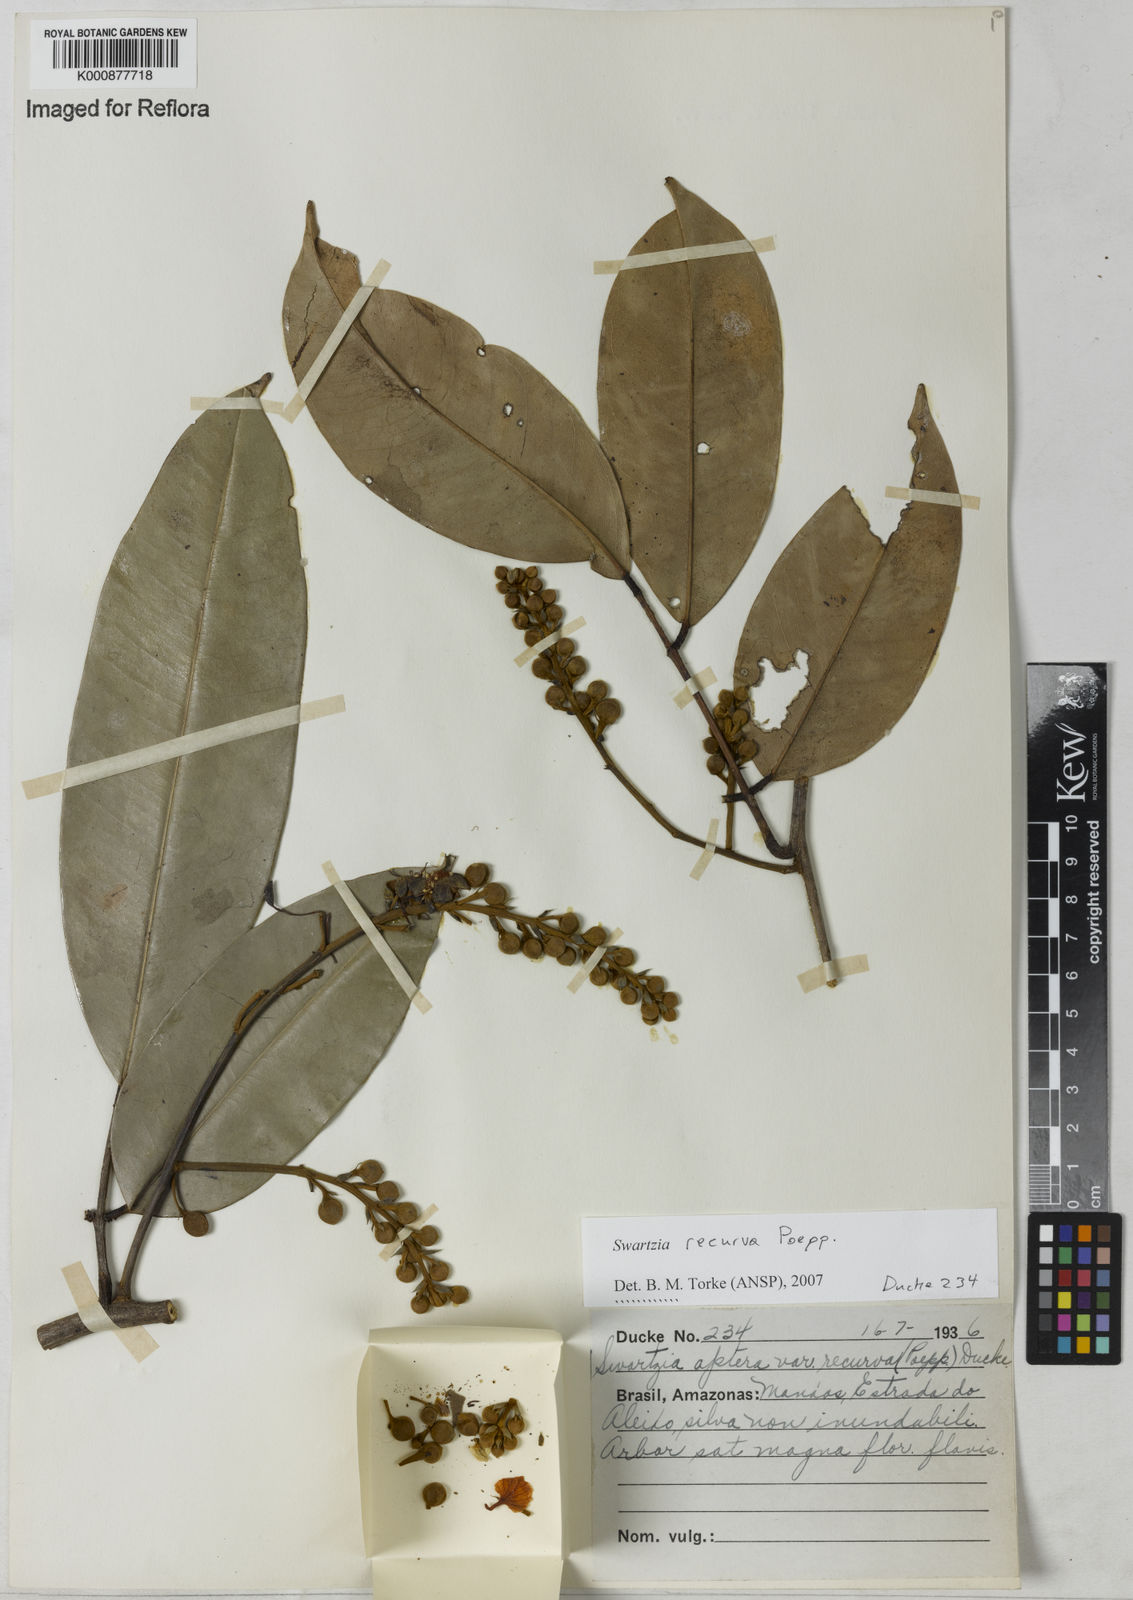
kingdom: Plantae
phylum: Tracheophyta
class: Magnoliopsida
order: Fabales
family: Fabaceae
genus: Swartzia
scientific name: Swartzia recurva
